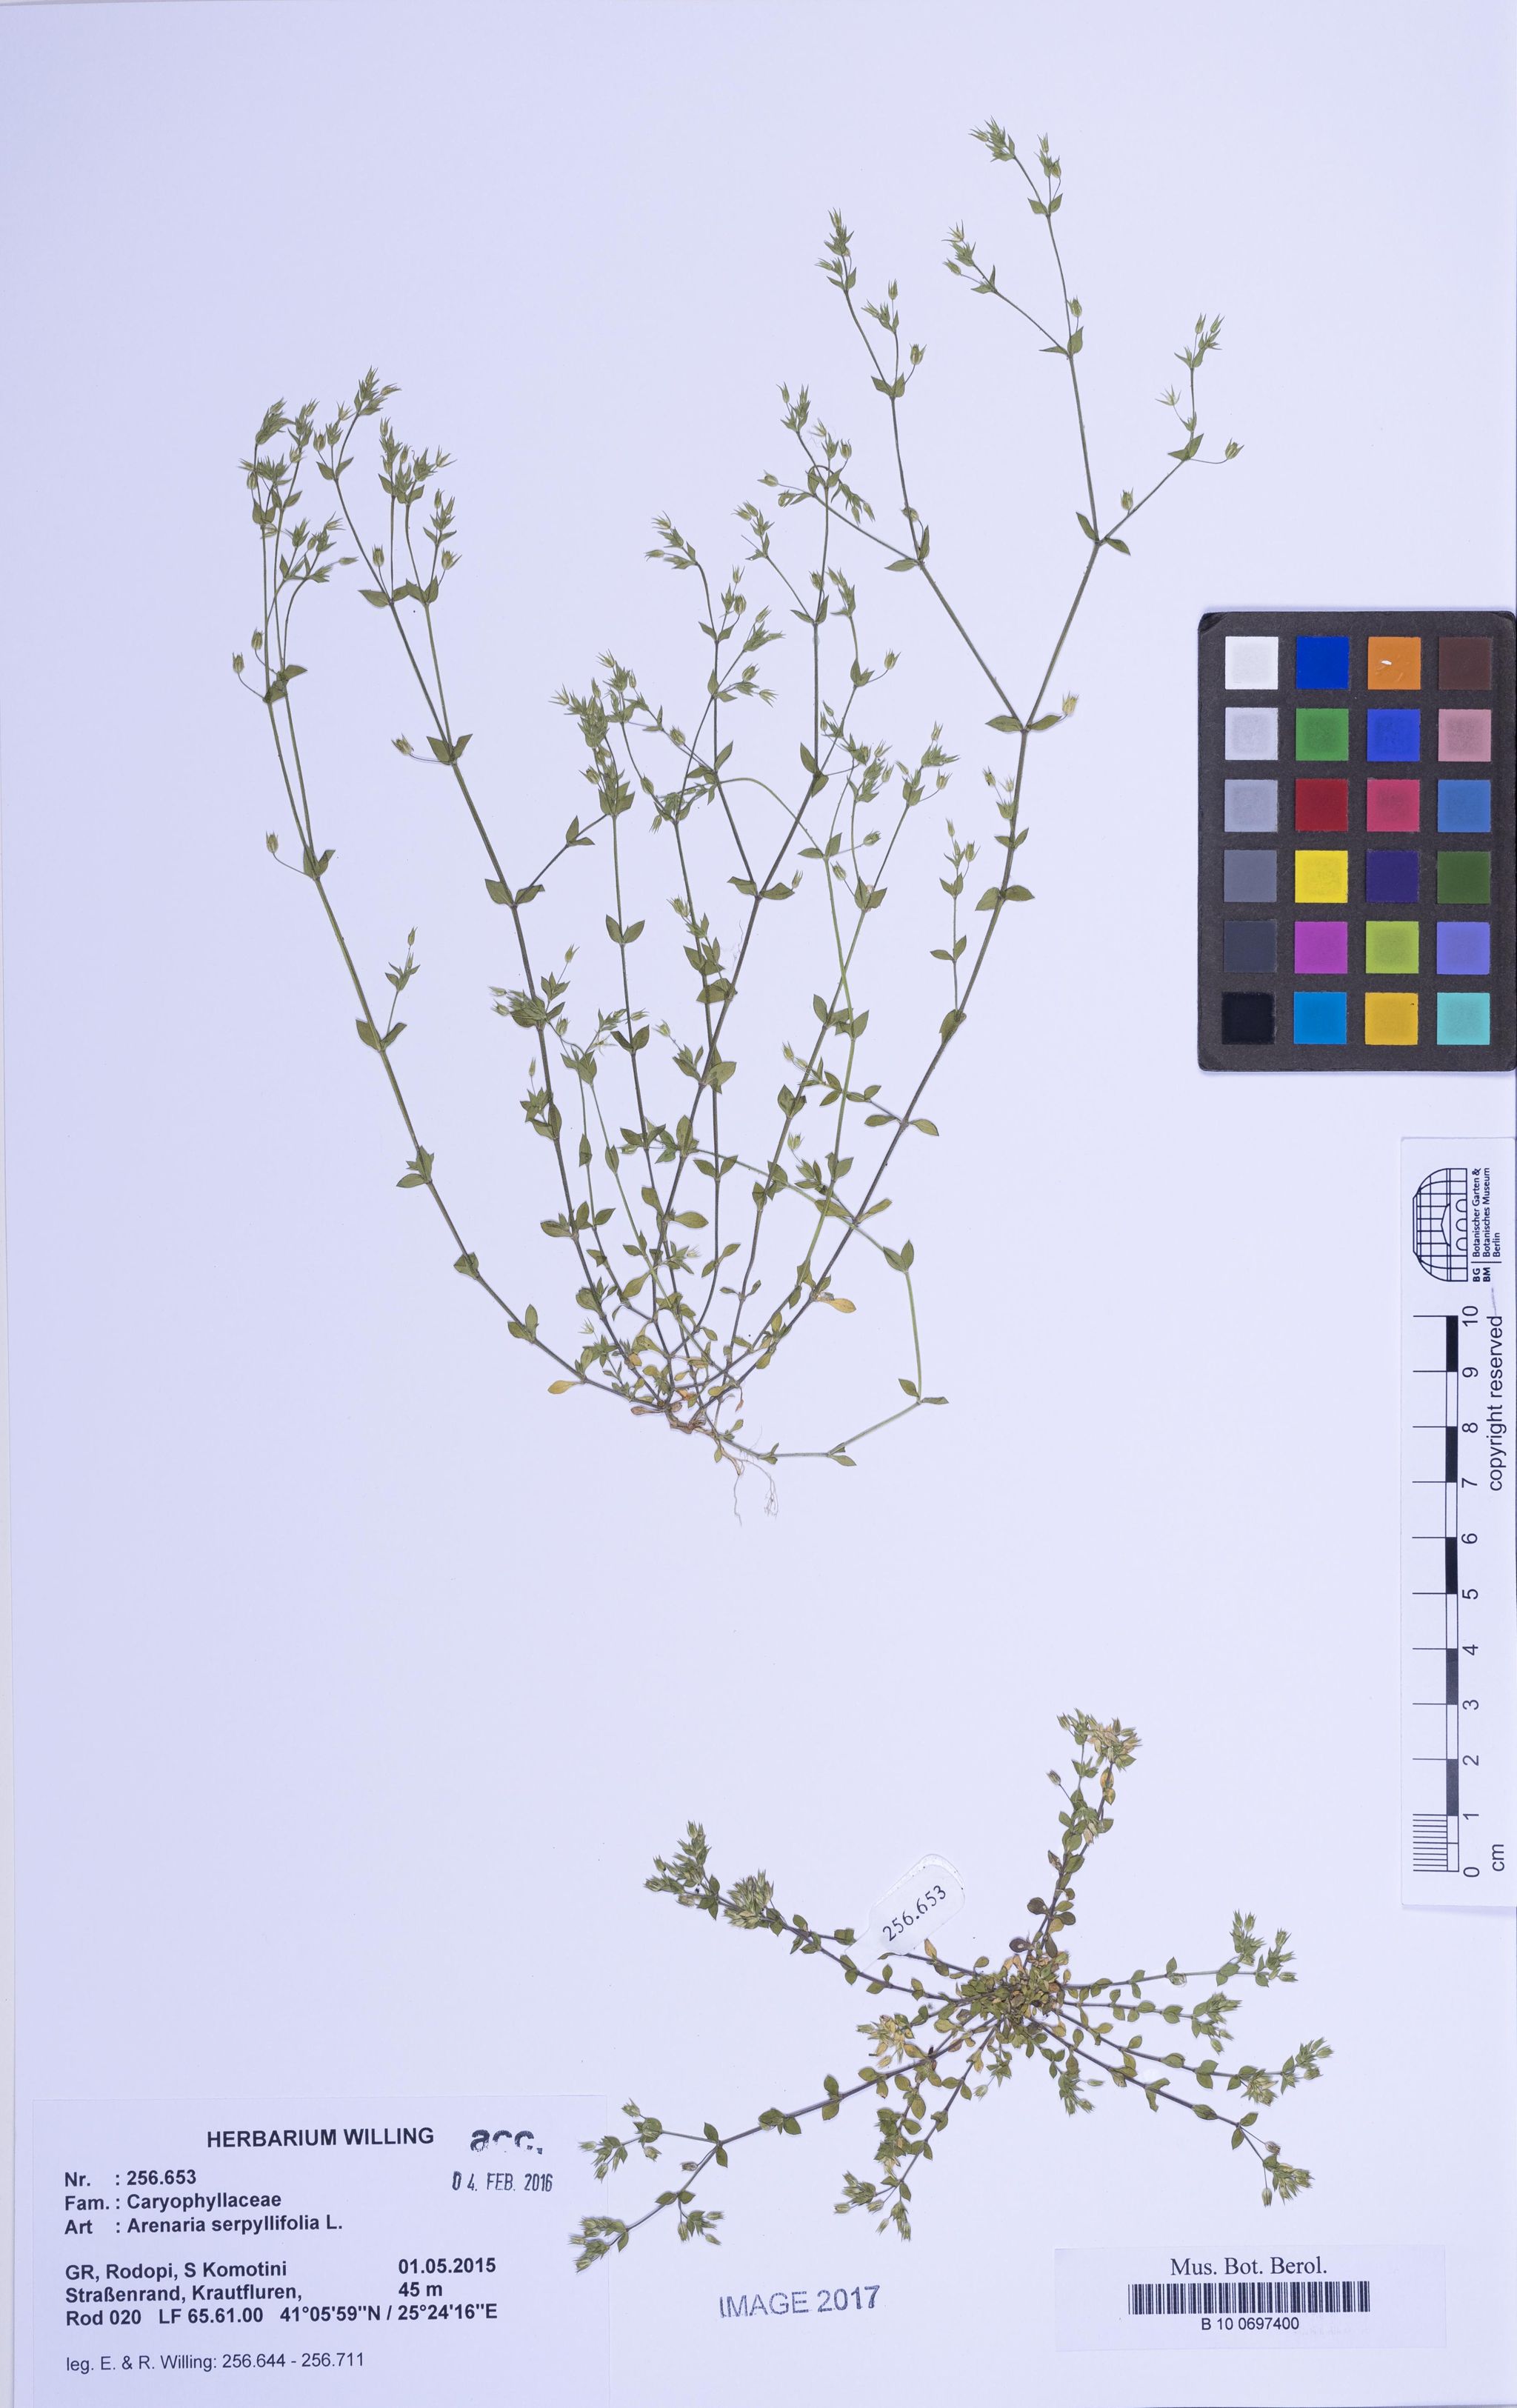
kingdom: Plantae
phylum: Tracheophyta
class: Magnoliopsida
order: Caryophyllales
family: Caryophyllaceae
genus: Arenaria
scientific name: Arenaria serpyllifolia
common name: Thyme-leaved sandwort
